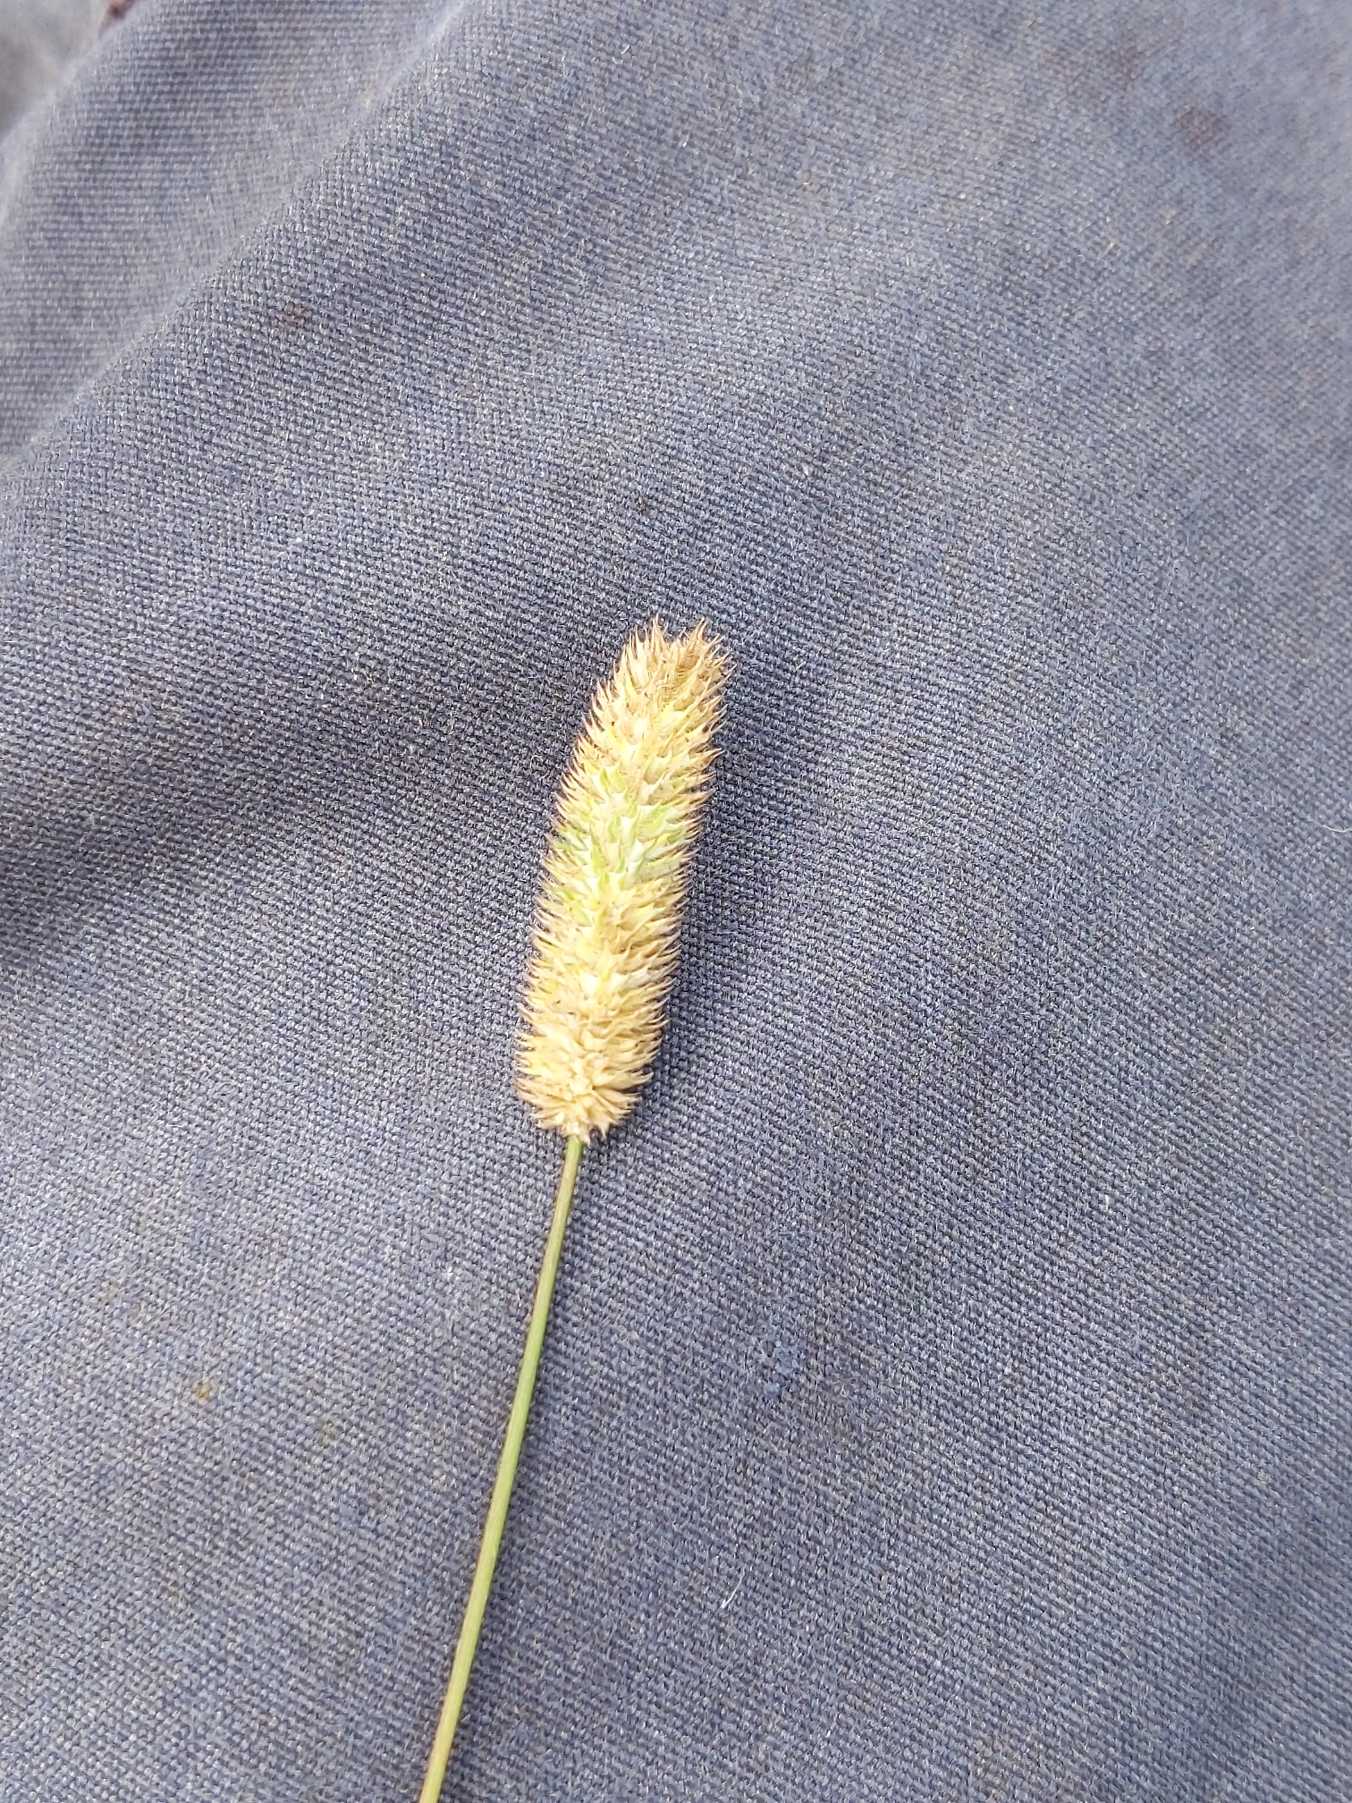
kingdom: Plantae
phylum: Tracheophyta
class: Liliopsida
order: Poales
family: Poaceae
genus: Phleum
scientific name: Phleum pratense
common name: Knold-rottehale
